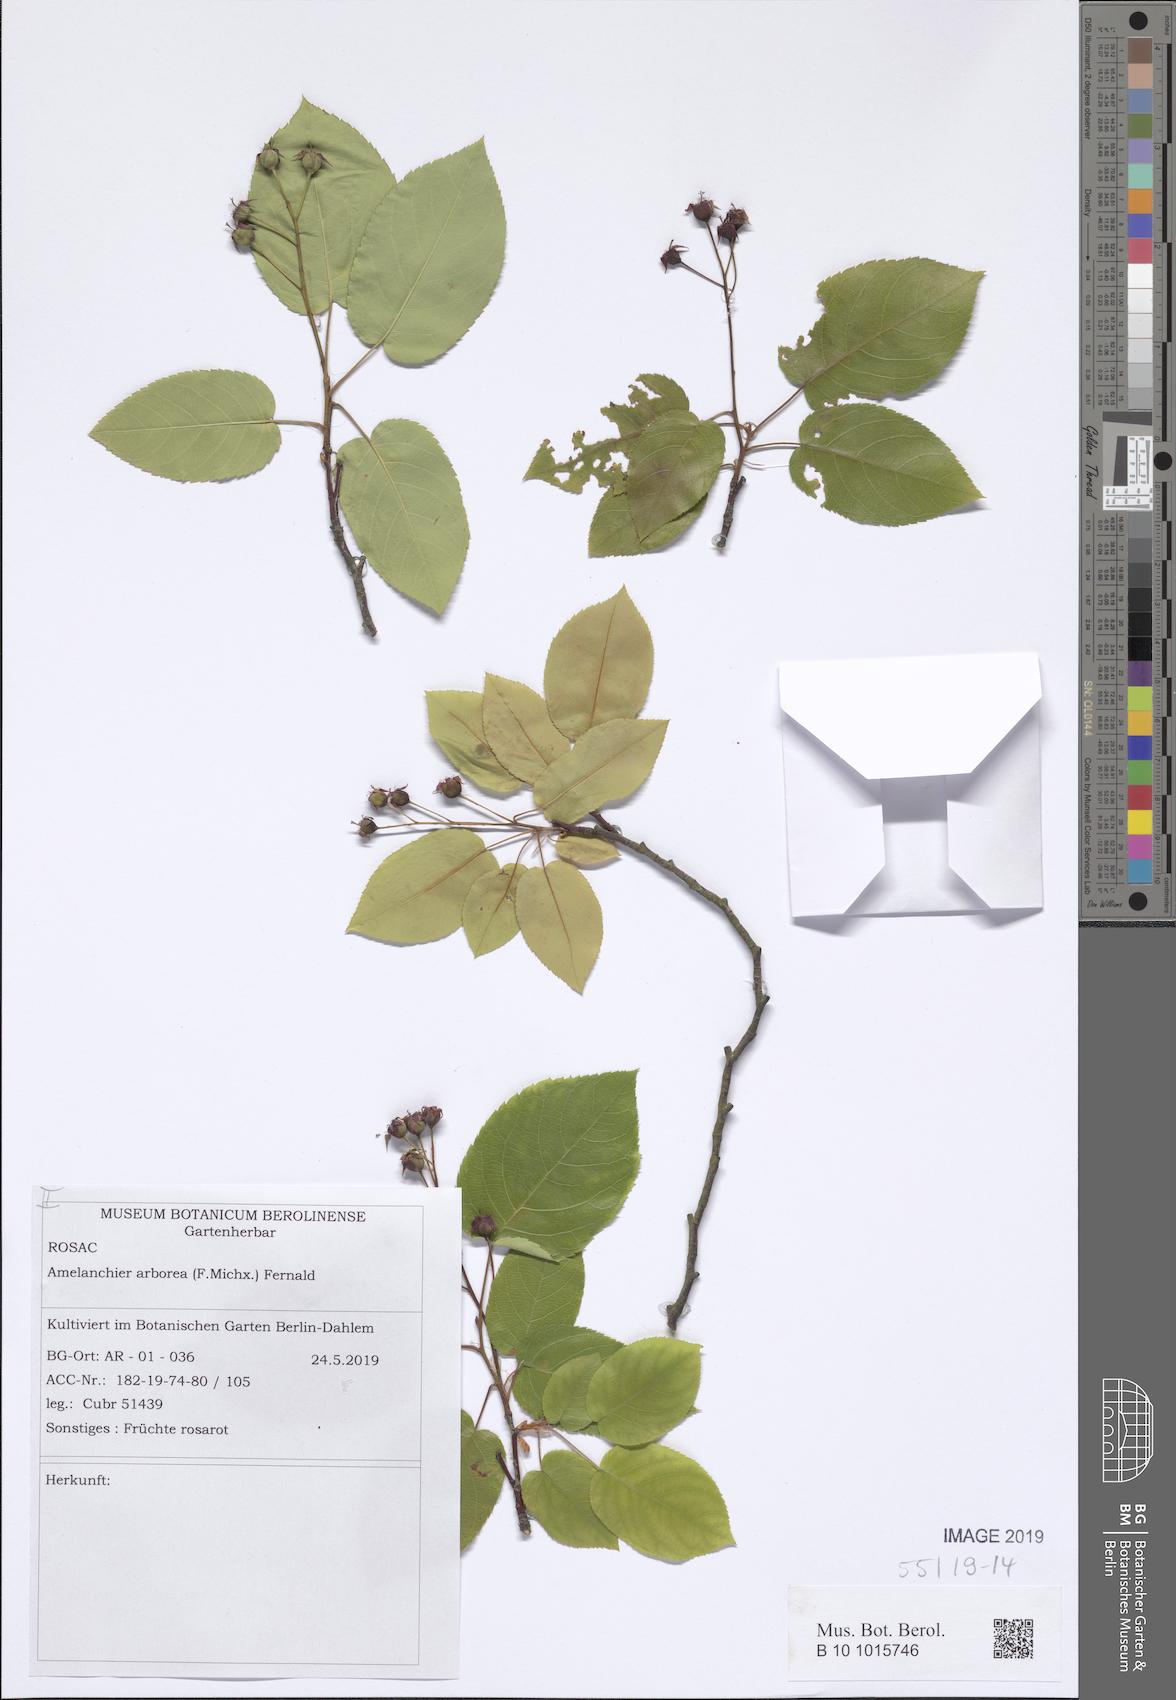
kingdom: Plantae
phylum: Tracheophyta
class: Magnoliopsida
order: Rosales
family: Rosaceae
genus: Amelanchier
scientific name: Amelanchier arborea
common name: Downy serviceberry
